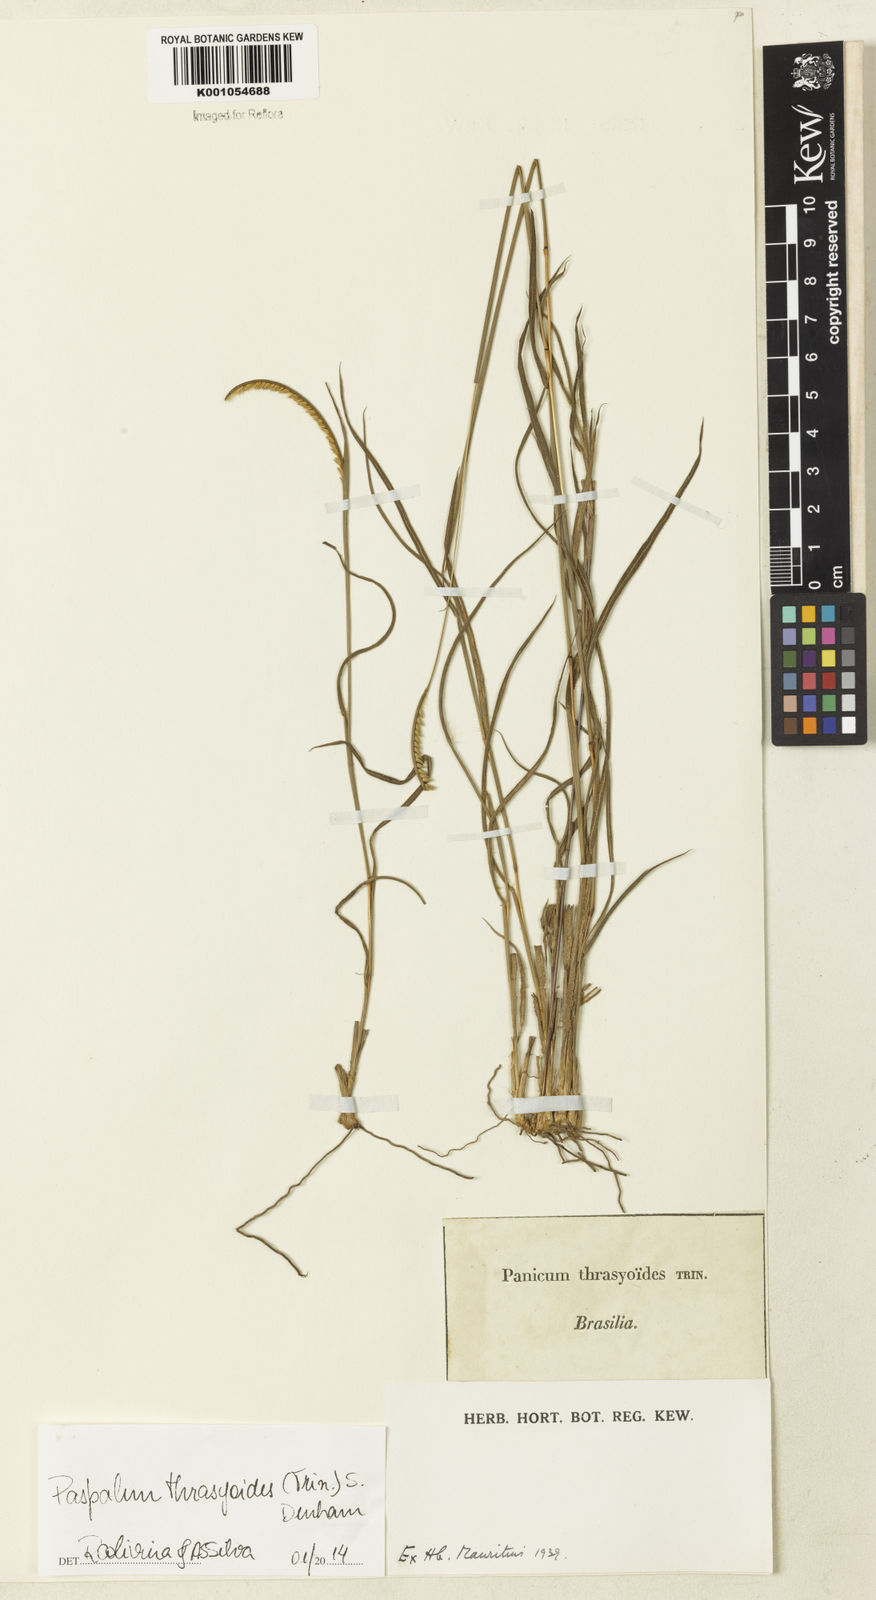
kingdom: Plantae
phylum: Tracheophyta
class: Liliopsida
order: Poales
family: Poaceae
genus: Paspalum
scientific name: Paspalum thrasyoides
